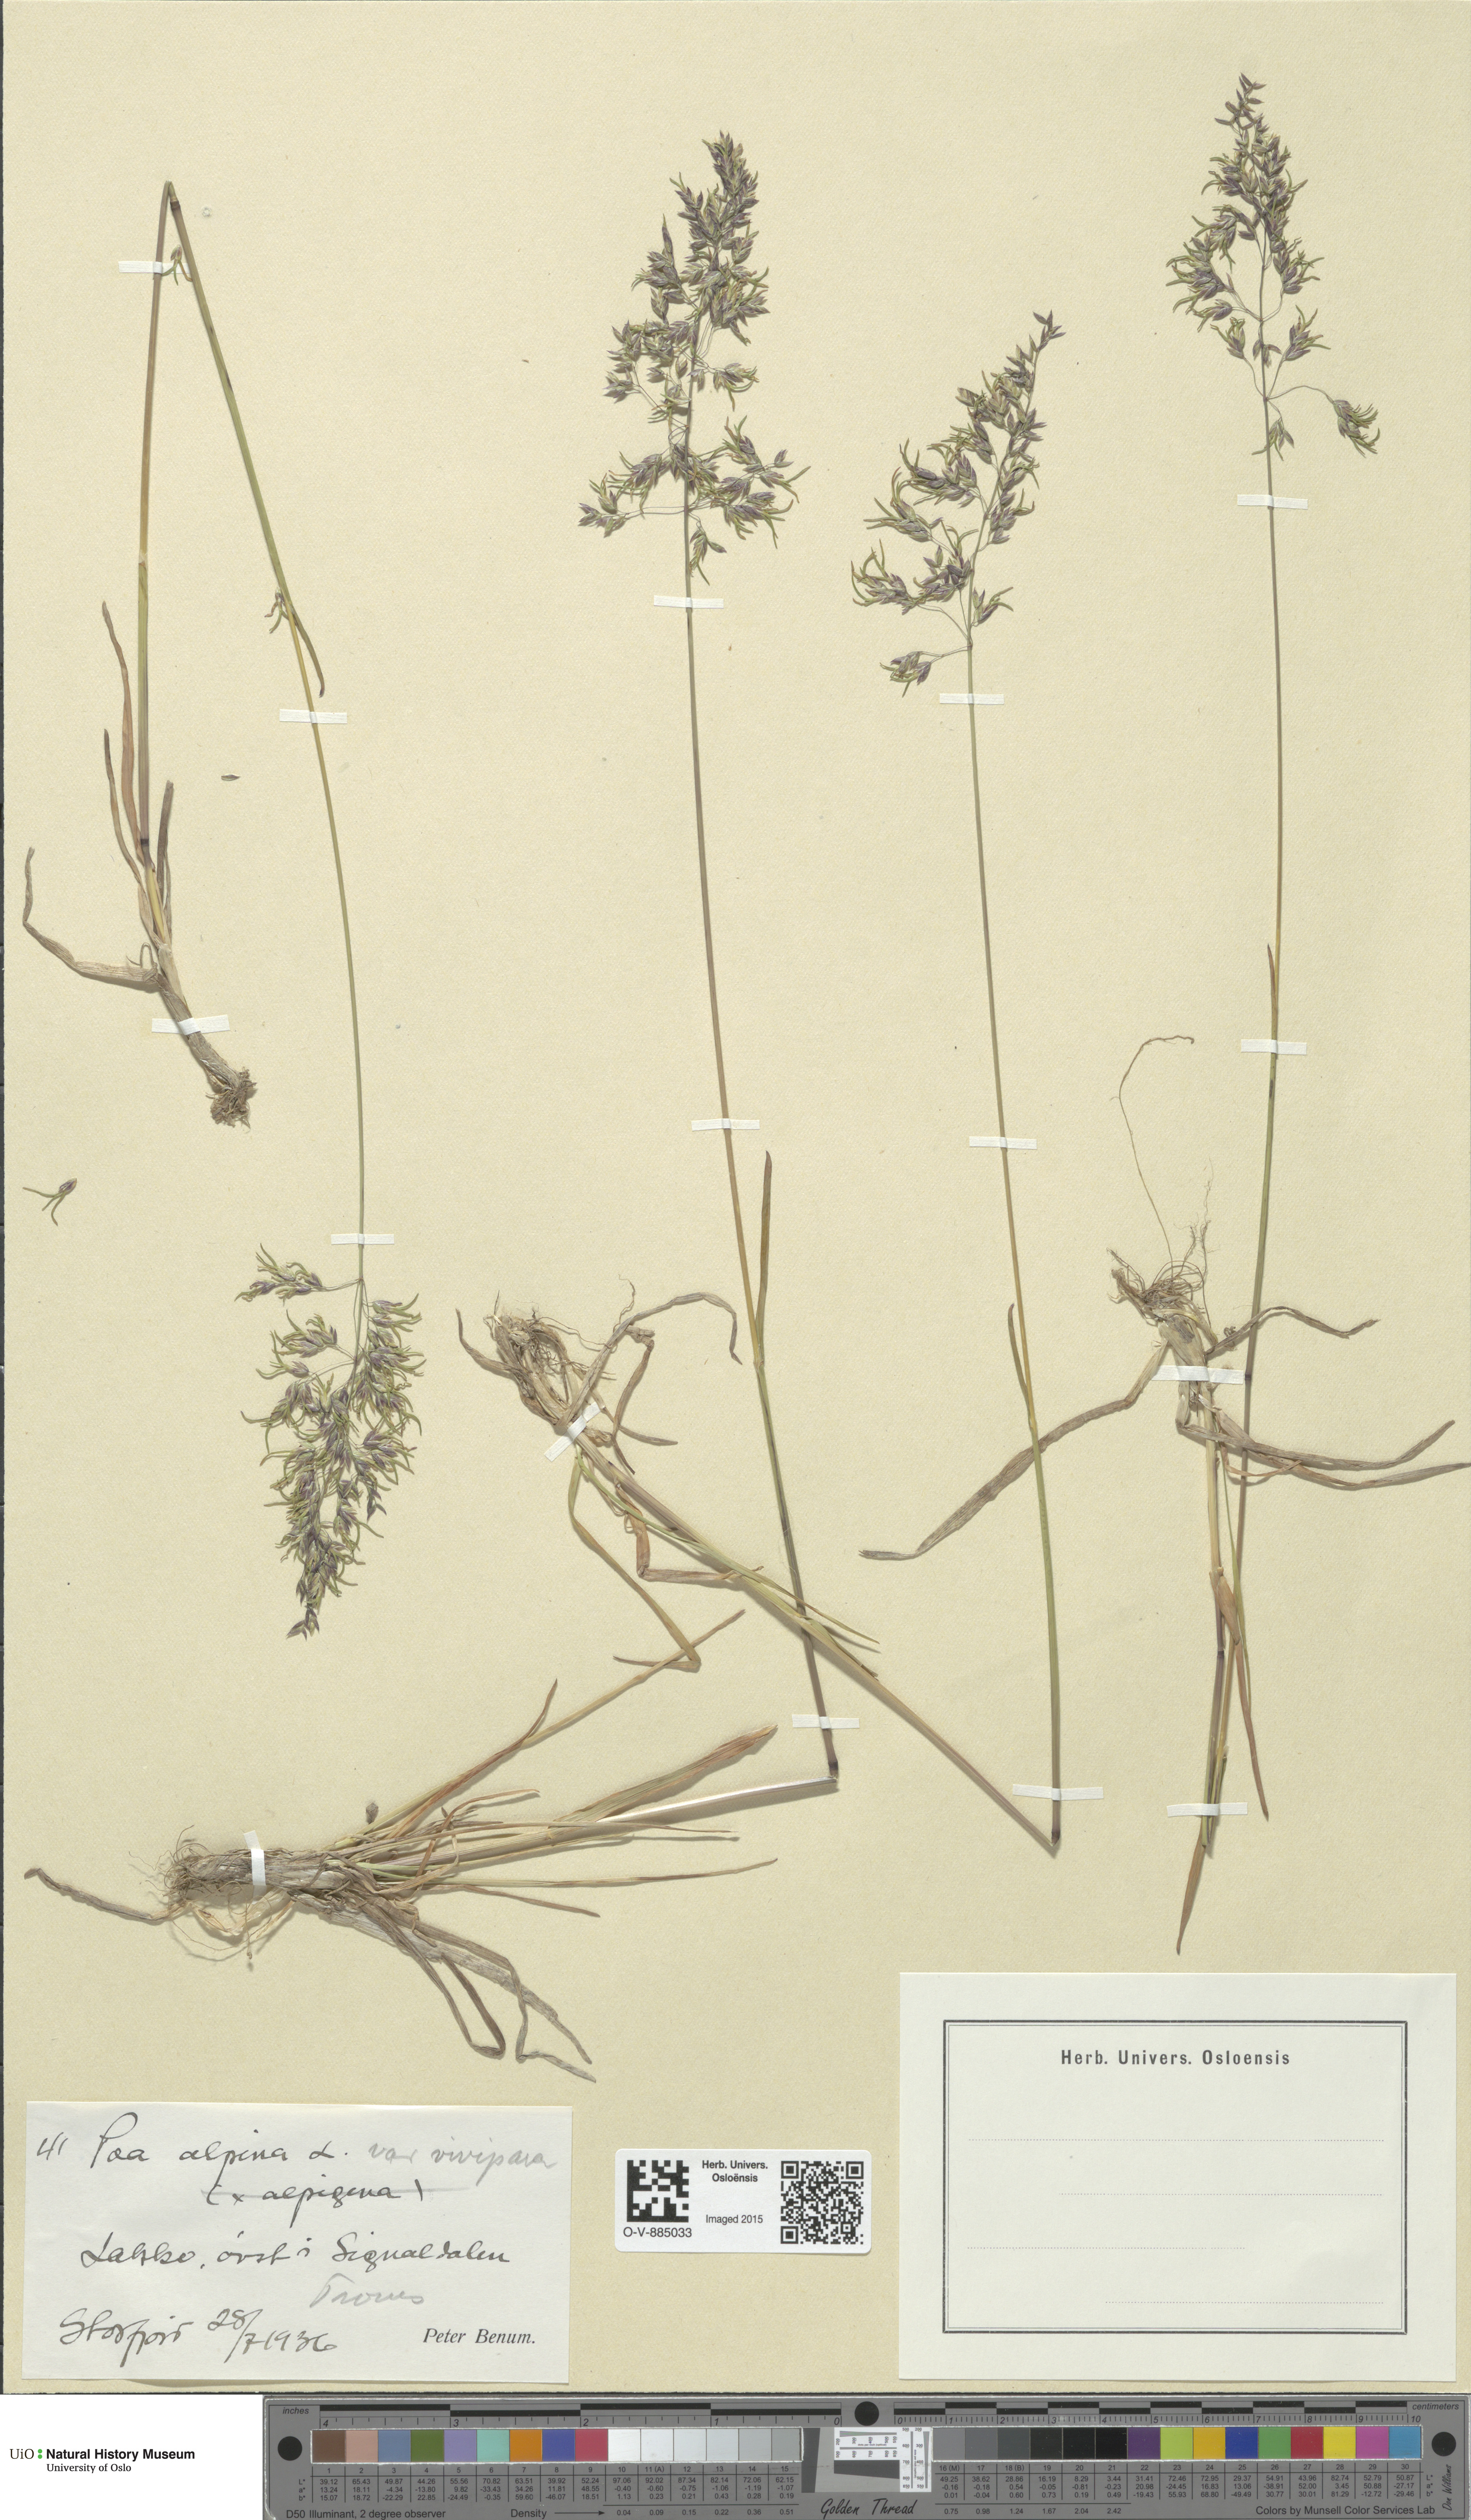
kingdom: Plantae
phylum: Tracheophyta
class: Liliopsida
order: Poales
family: Poaceae
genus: Poa
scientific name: Poa alpina
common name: Alpine bluegrass
